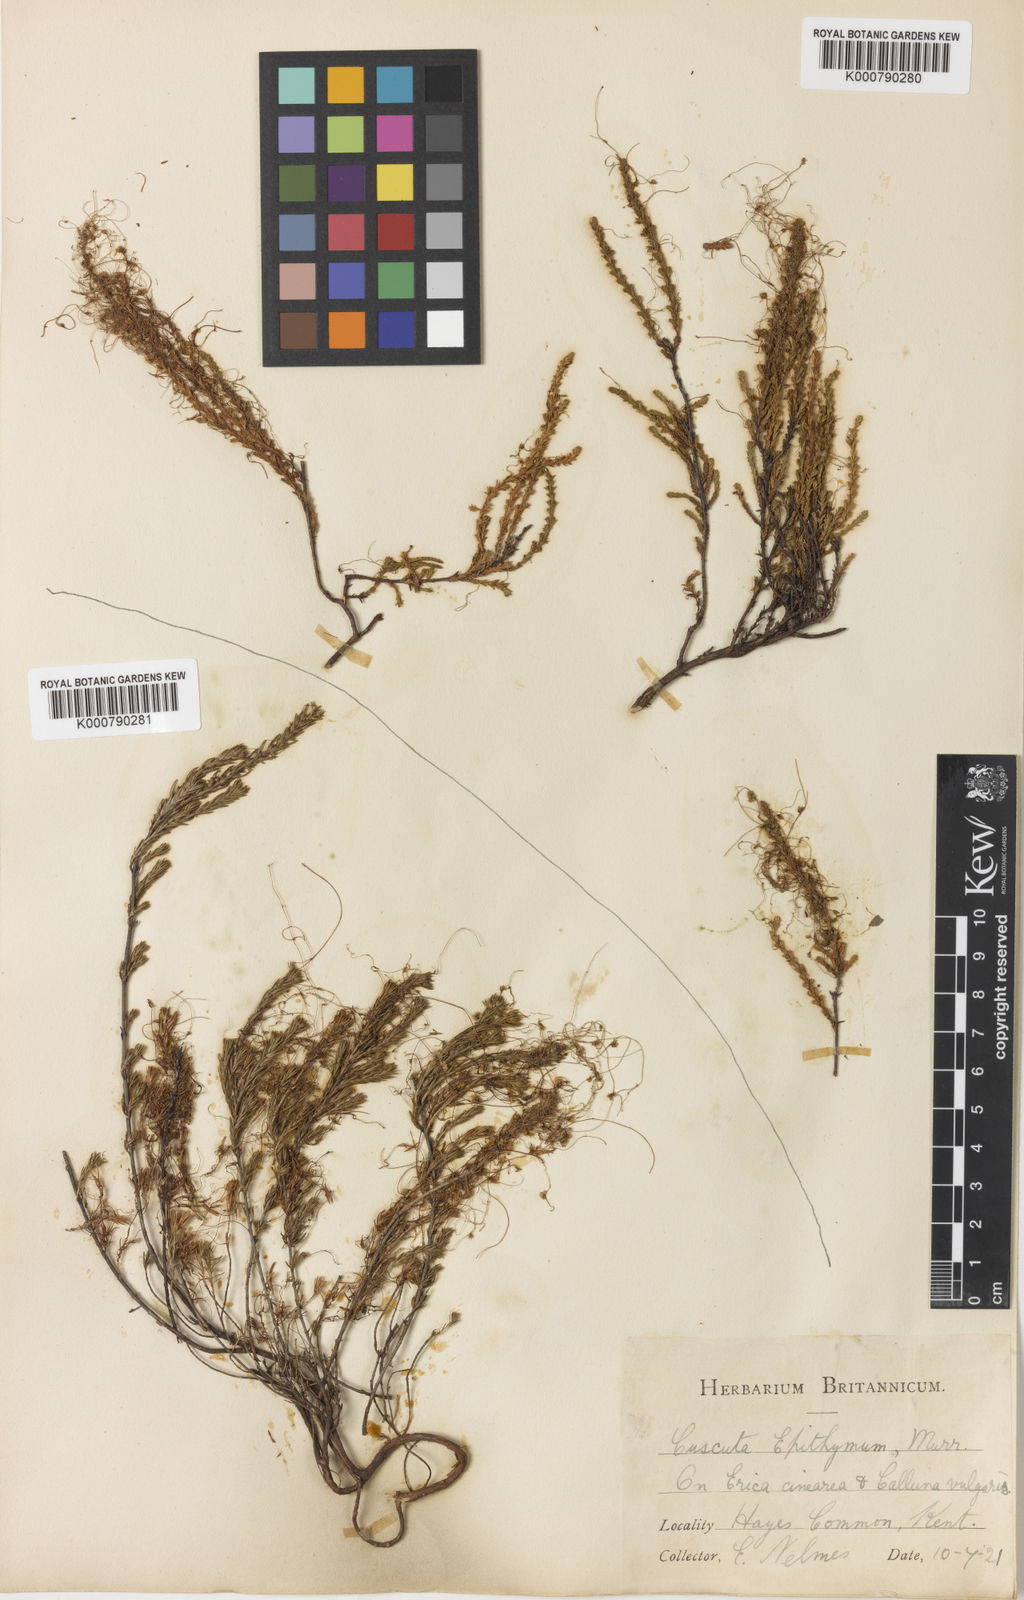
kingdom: Plantae
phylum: Tracheophyta
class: Magnoliopsida
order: Solanales
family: Convolvulaceae
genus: Cuscuta
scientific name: Cuscuta epithymum
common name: Clover dodder
